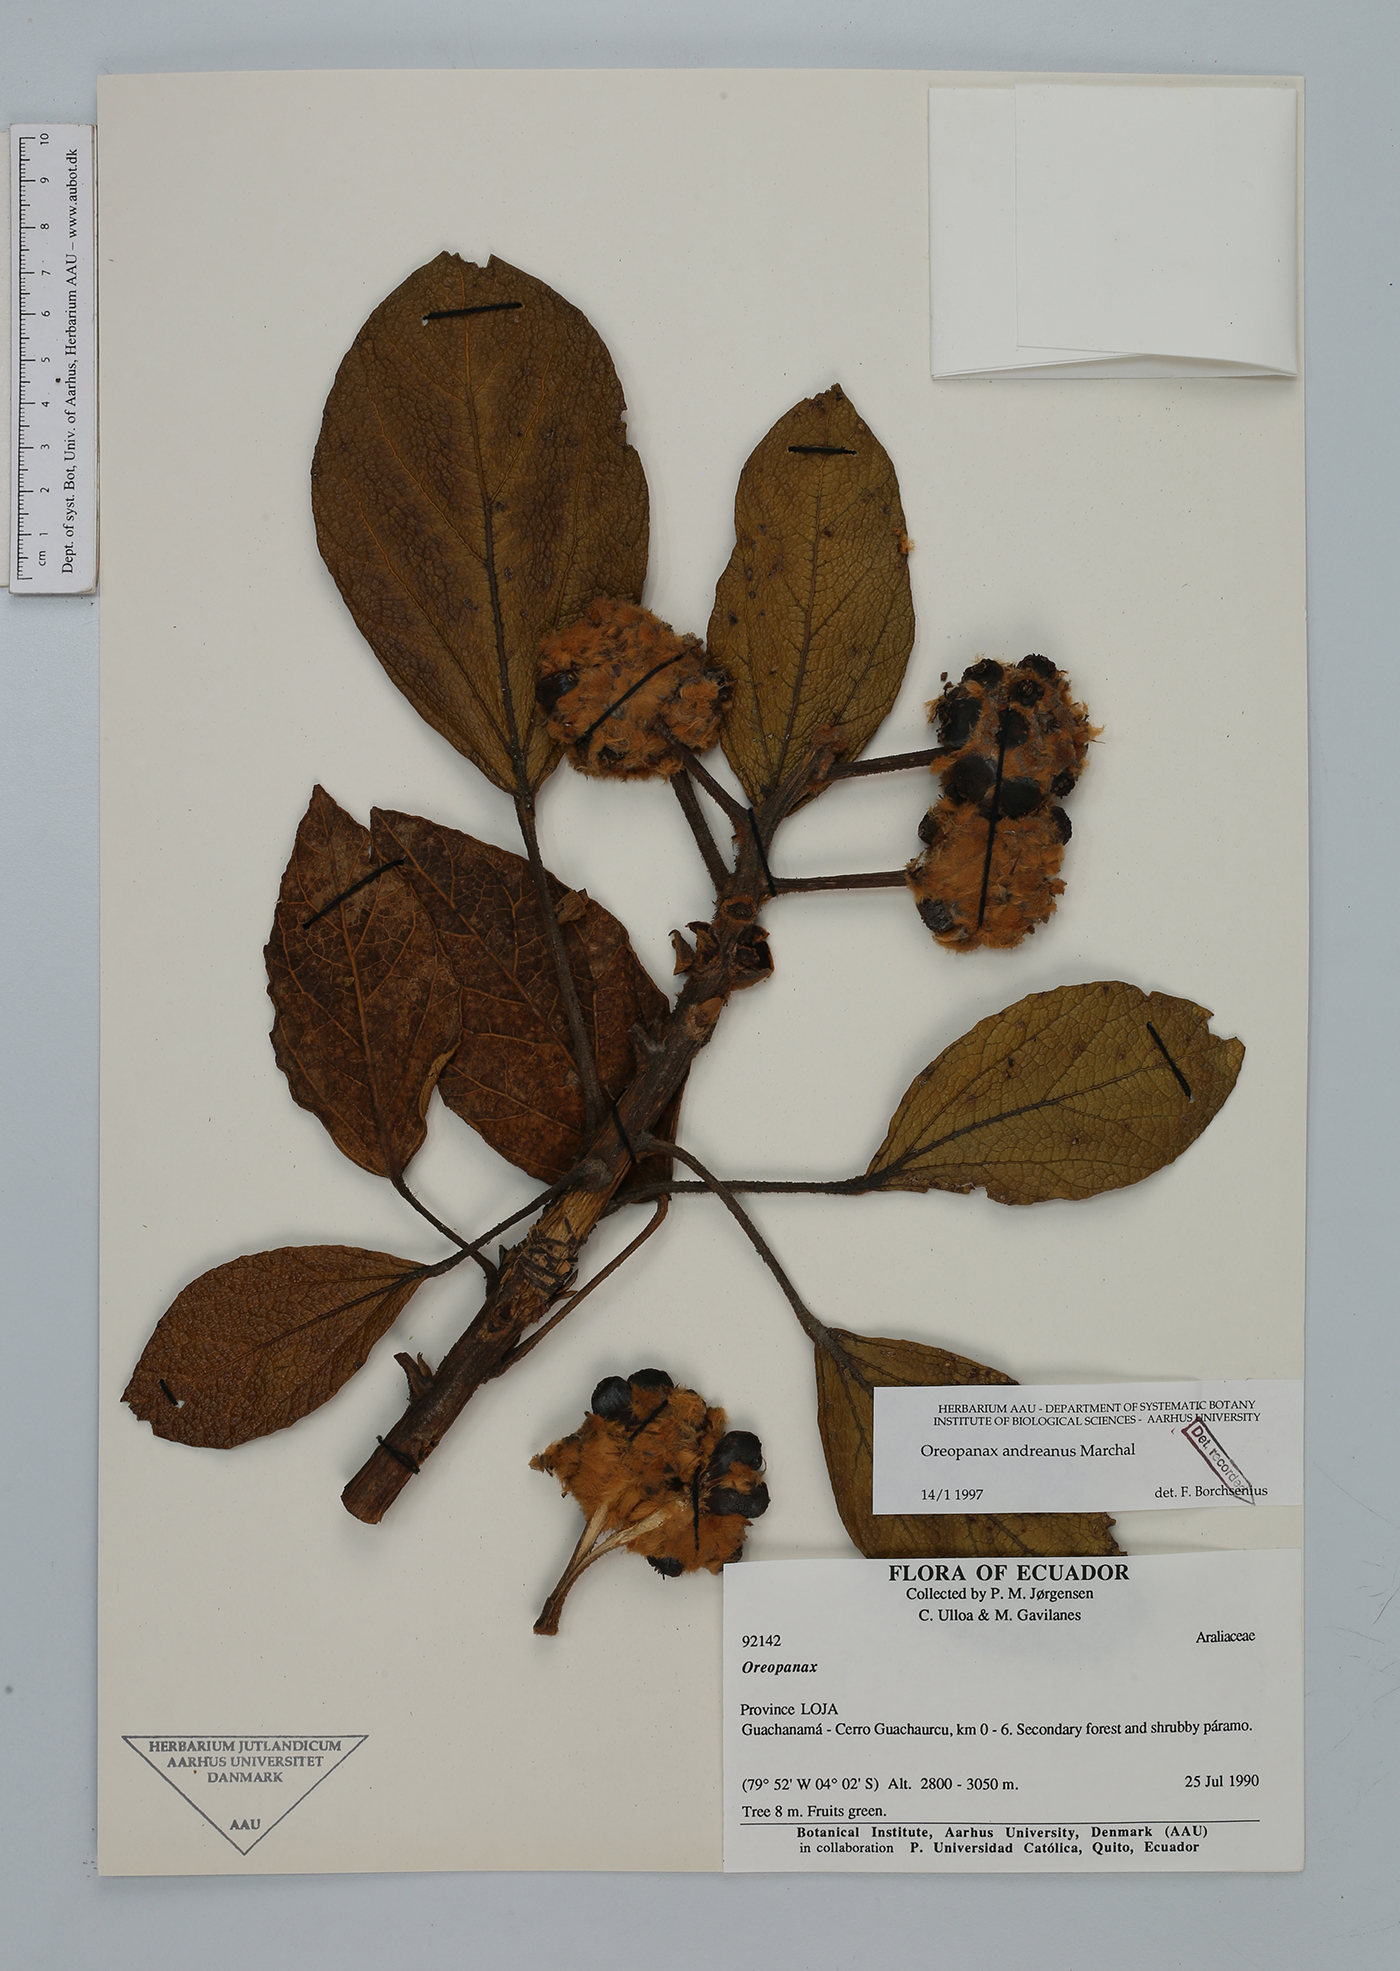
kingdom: Plantae
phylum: Tracheophyta
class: Magnoliopsida
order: Apiales
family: Araliaceae
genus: Oreopanax
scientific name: Oreopanax andreanus
